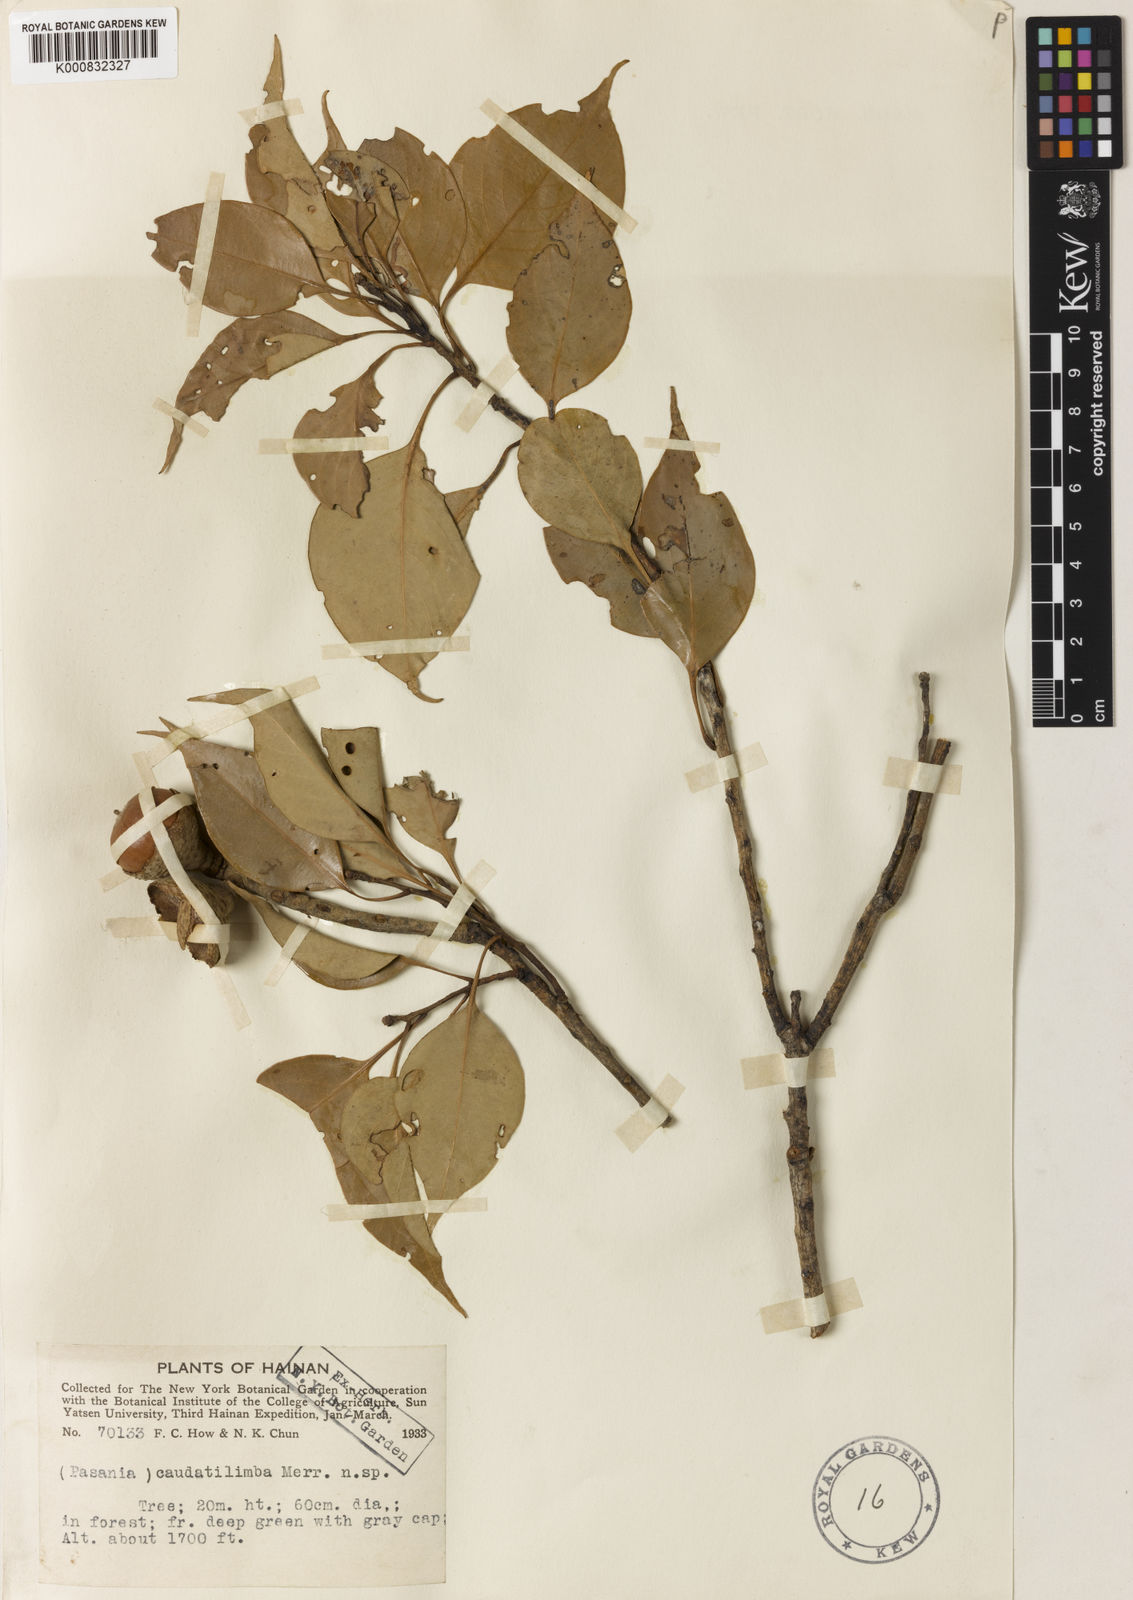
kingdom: Plantae
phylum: Tracheophyta
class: Magnoliopsida
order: Fagales
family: Fagaceae
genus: Lithocarpus
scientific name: Lithocarpus caudatilimbus
